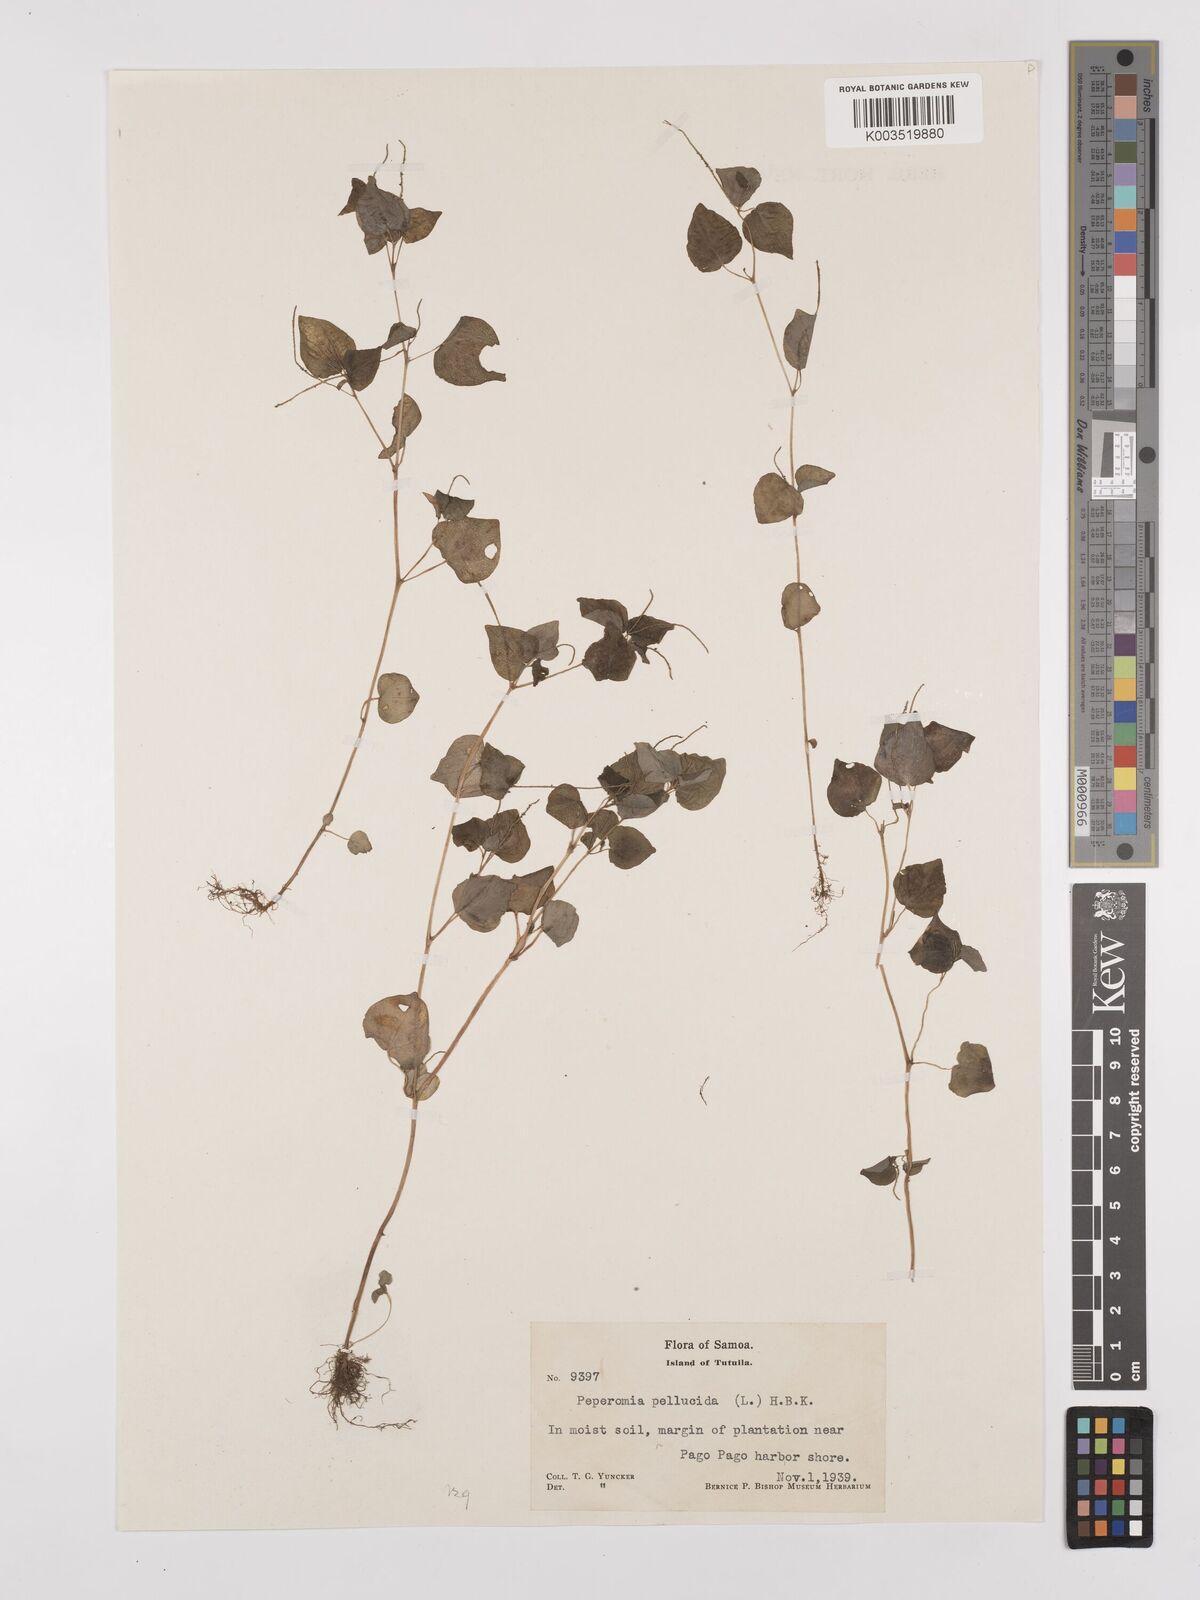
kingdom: Plantae
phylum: Tracheophyta
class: Magnoliopsida
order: Piperales
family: Piperaceae
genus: Peperomia
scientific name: Peperomia pellucida
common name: Man to man
